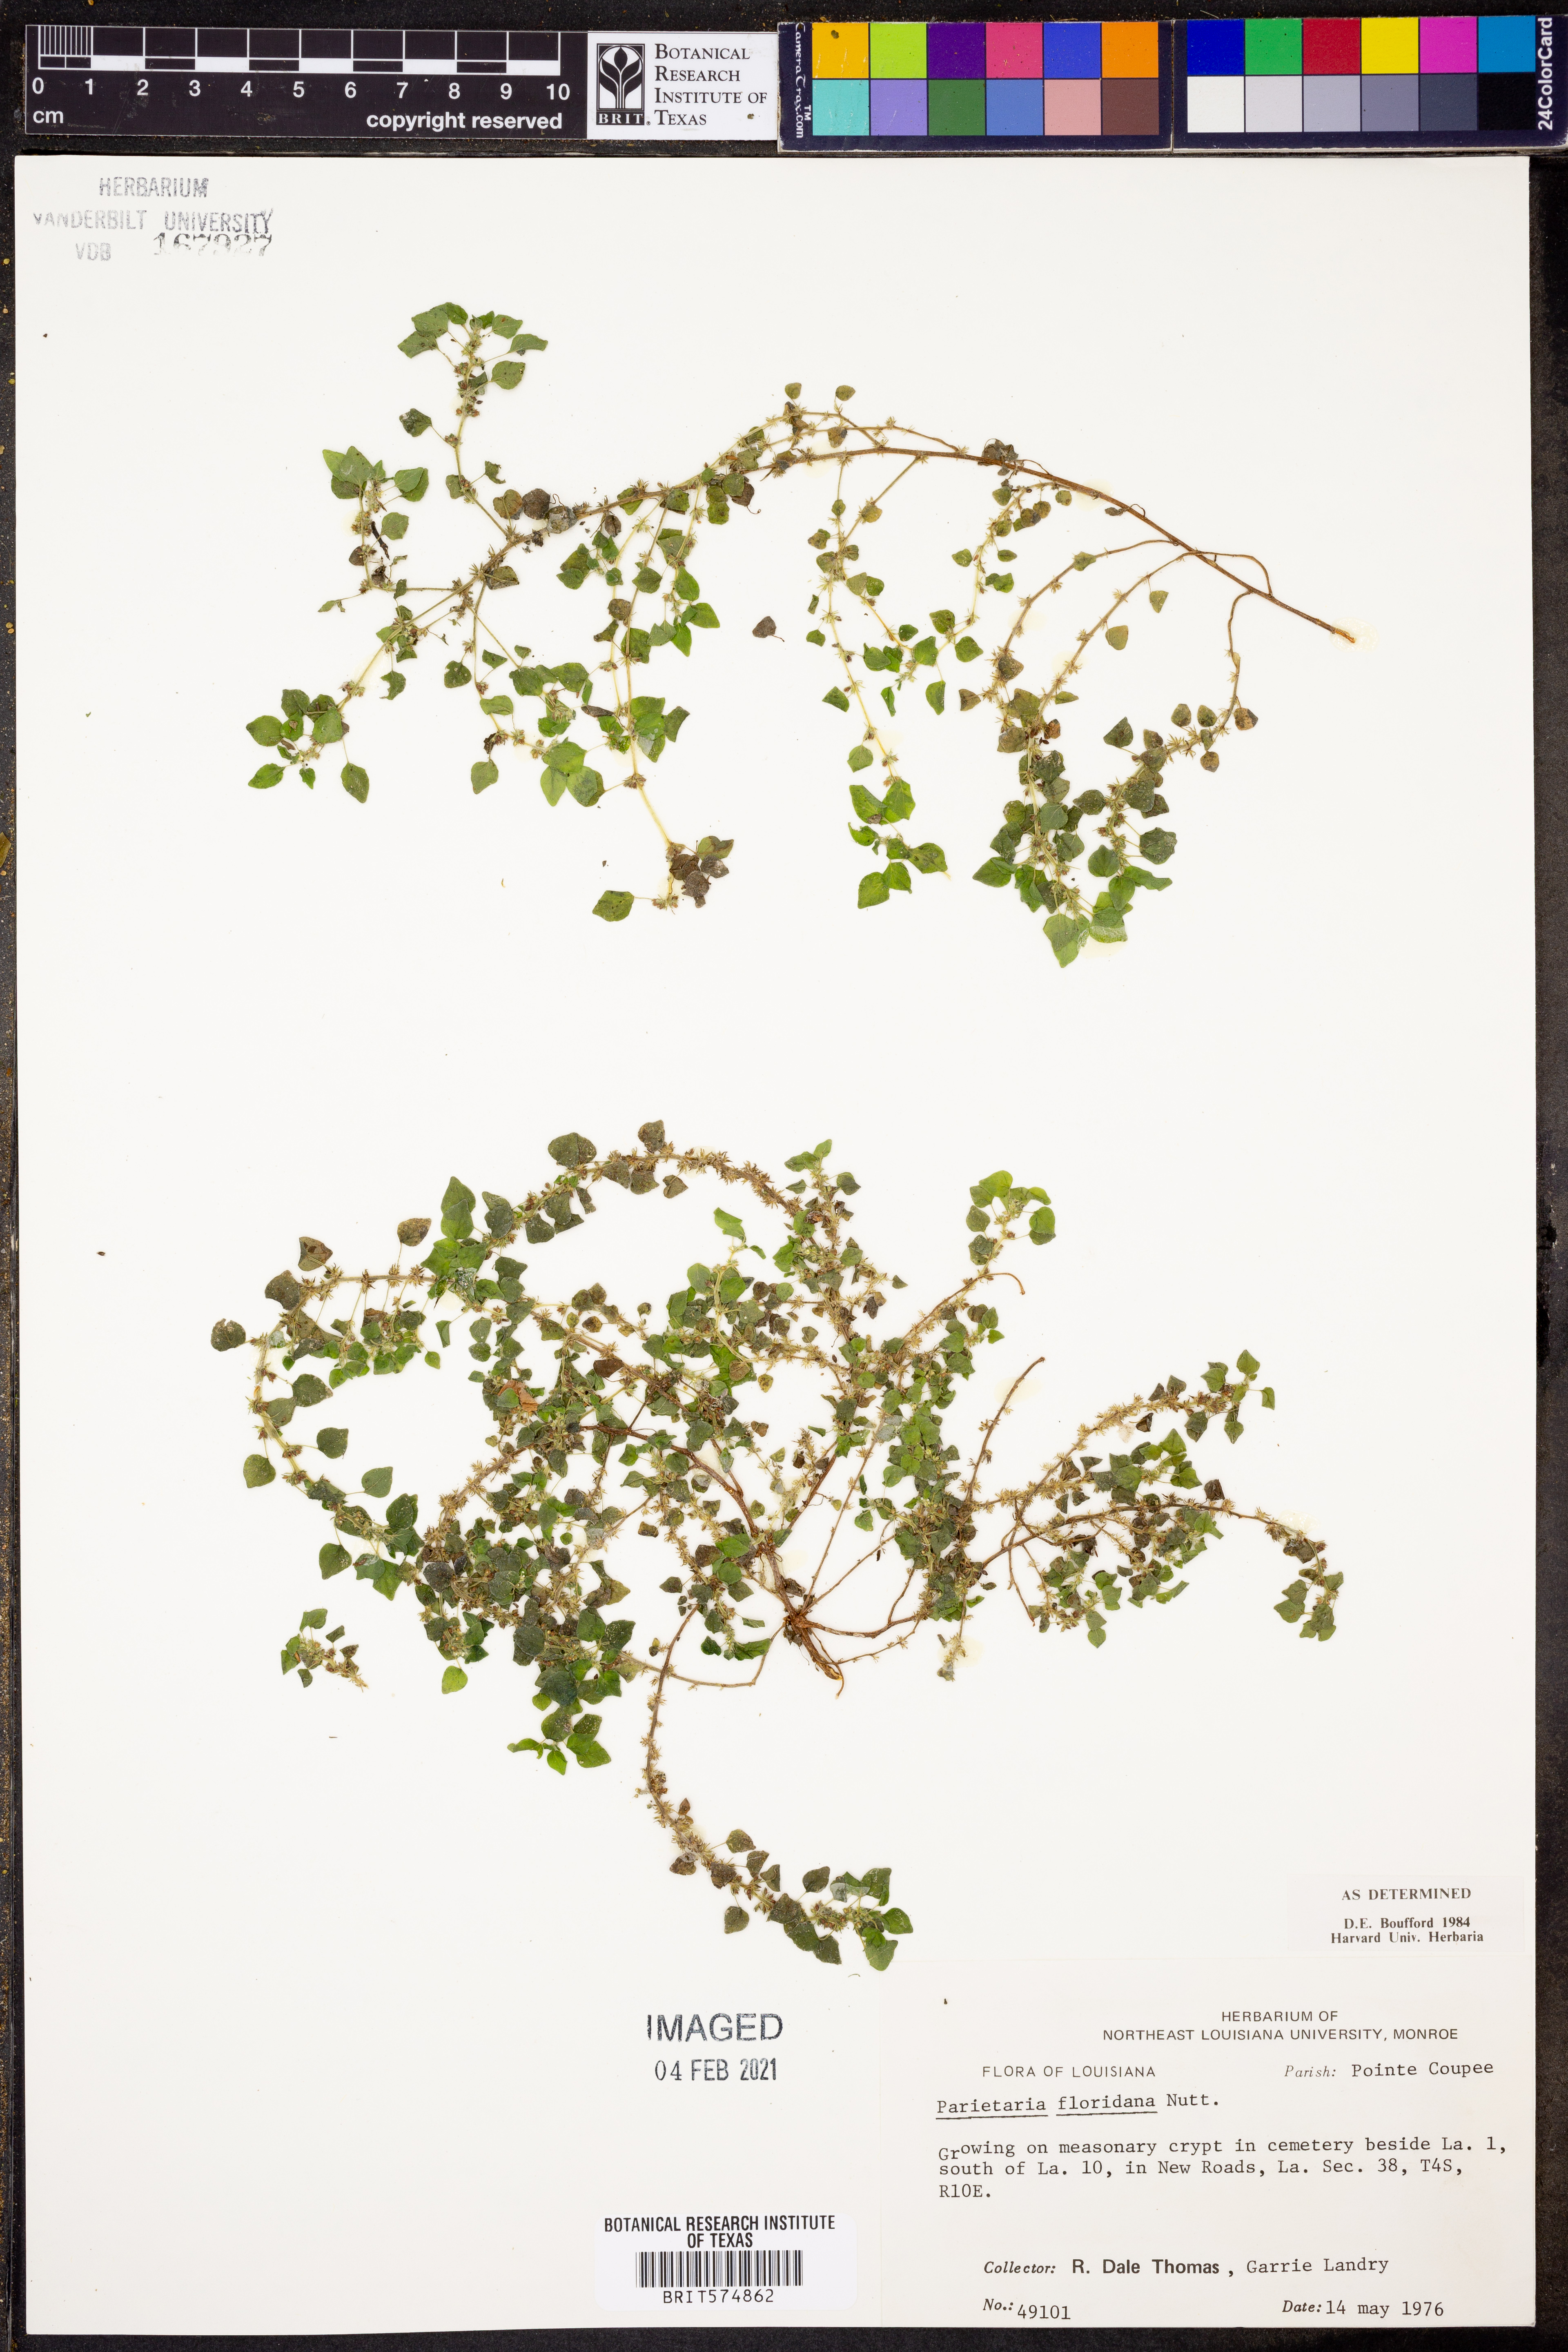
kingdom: Plantae
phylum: Tracheophyta
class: Magnoliopsida
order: Rosales
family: Urticaceae
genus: Parietaria
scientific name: Parietaria floridana
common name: Florida pellitory
